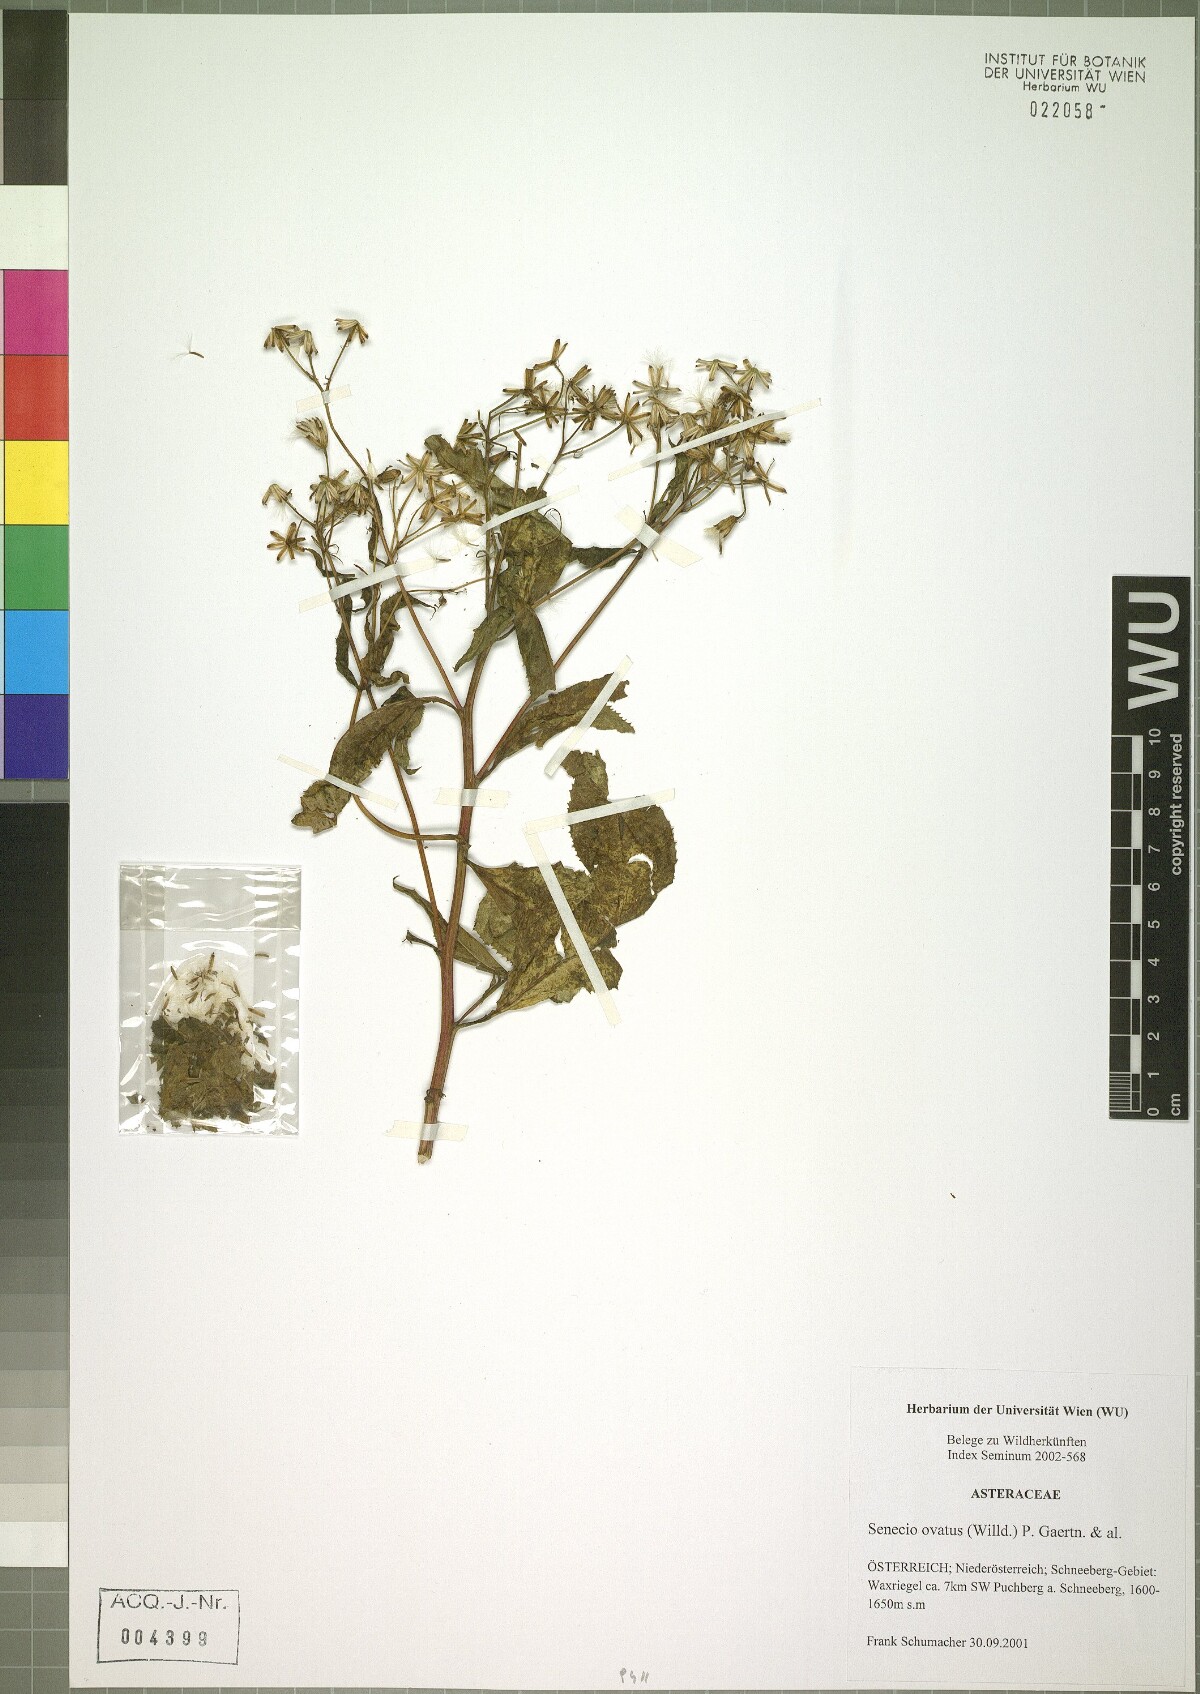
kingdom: Plantae
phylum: Tracheophyta
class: Magnoliopsida
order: Asterales
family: Asteraceae
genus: Senecio
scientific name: Senecio ovatus
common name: Wood ragwort
